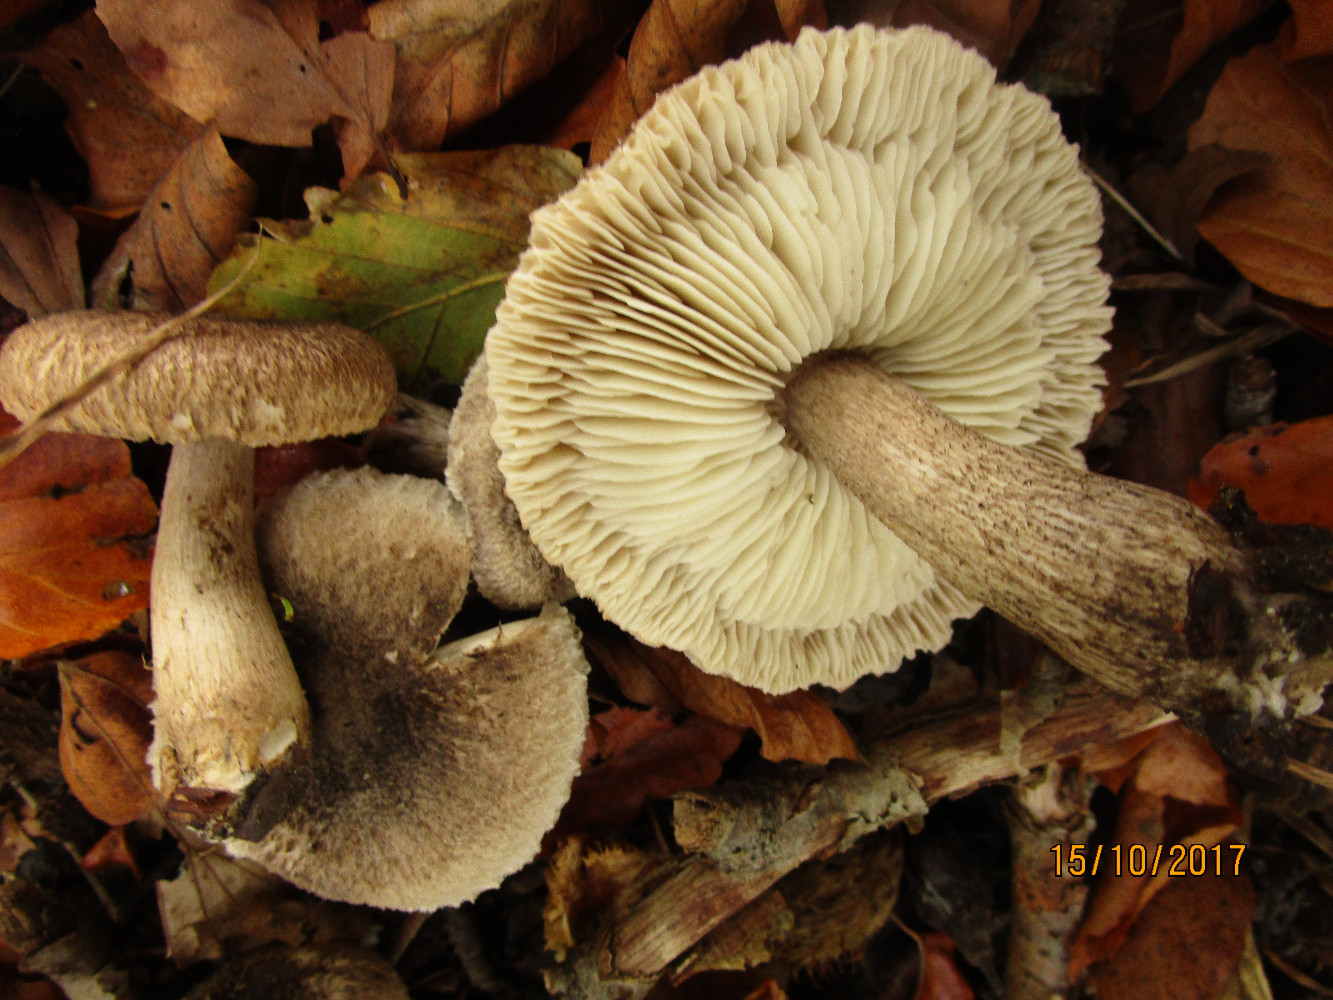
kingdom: Fungi
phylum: Basidiomycota
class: Agaricomycetes
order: Agaricales
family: Tricholomataceae
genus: Tricholoma
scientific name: Tricholoma atrosquamosum
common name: sortskællet ridderhat
